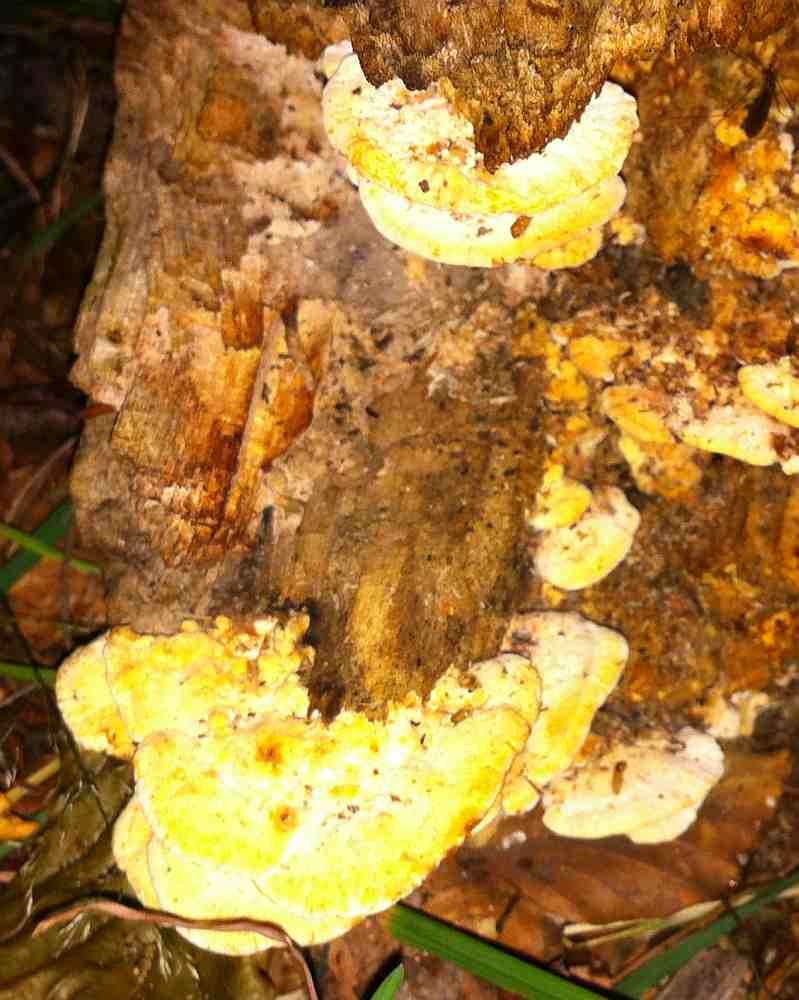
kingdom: Fungi
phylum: Basidiomycota
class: Agaricomycetes
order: Polyporales
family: Steccherinaceae
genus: Antrodiella
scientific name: Antrodiella serpula
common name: gulrandet elastikporesvamp
